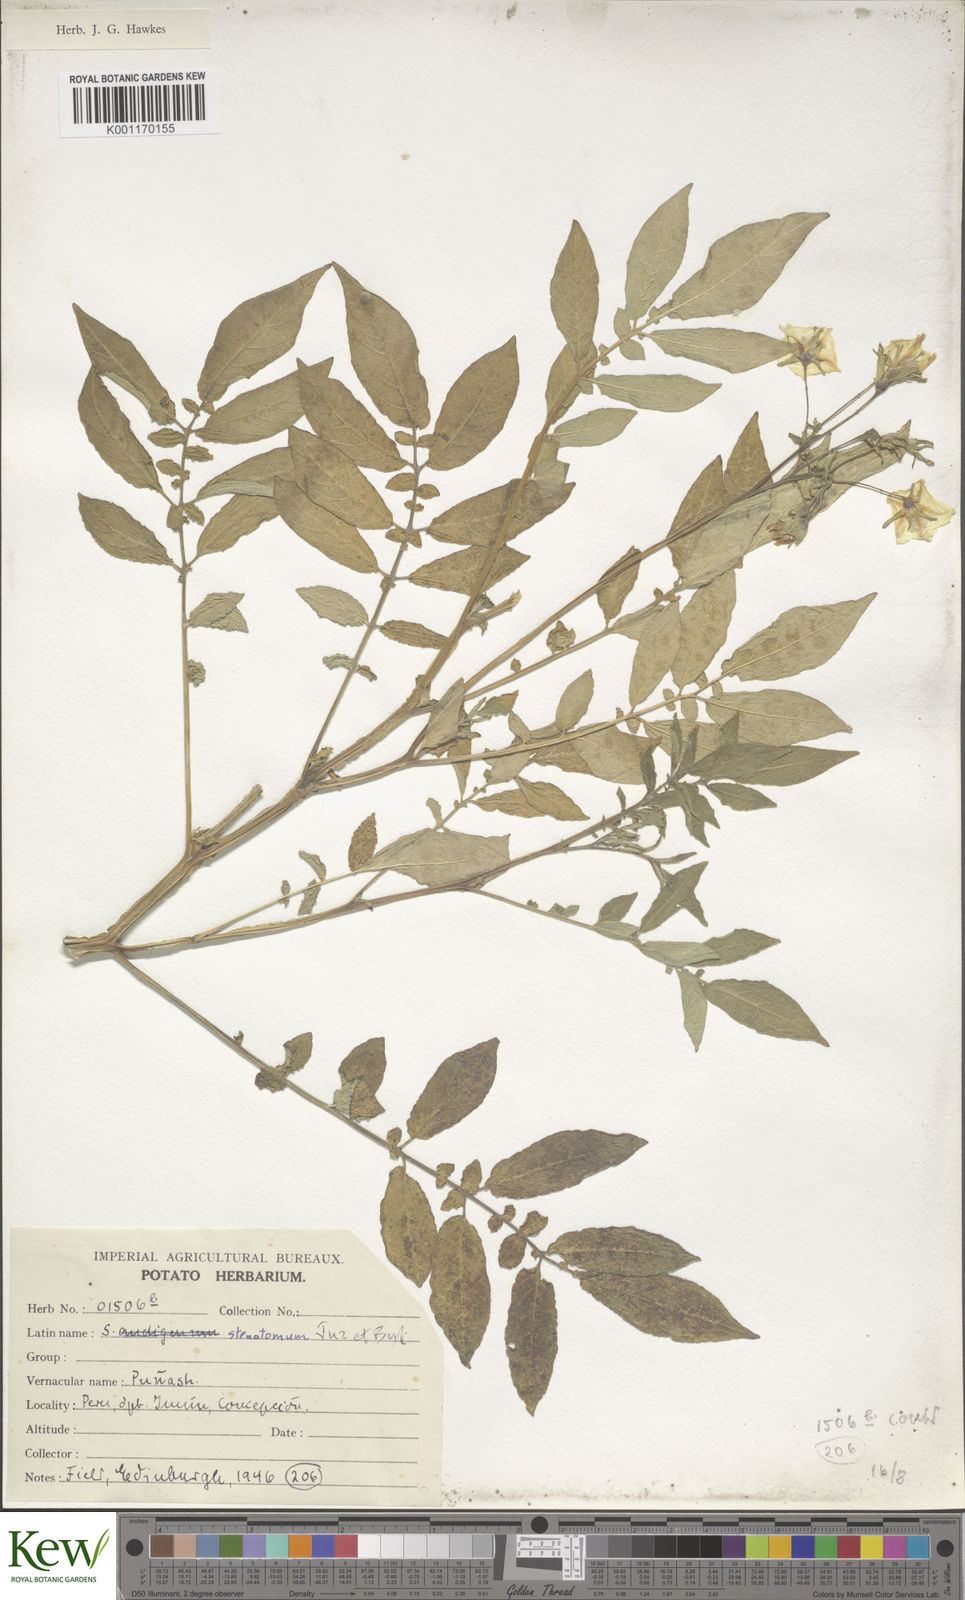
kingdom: Plantae
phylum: Tracheophyta
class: Magnoliopsida
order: Solanales
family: Solanaceae
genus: Solanum
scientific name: Solanum tuberosum
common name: Potato
